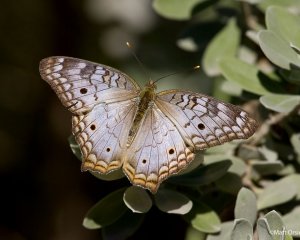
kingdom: Animalia
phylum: Arthropoda
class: Insecta
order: Lepidoptera
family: Nymphalidae
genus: Anartia
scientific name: Anartia jatrophae
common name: White Peacock
